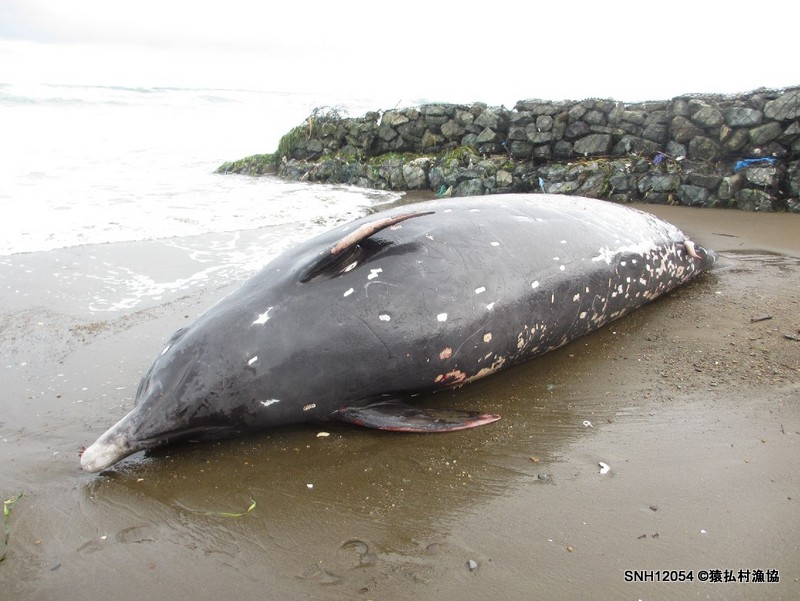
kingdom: Animalia
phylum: Chordata
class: Mammalia
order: Cetacea
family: Hyperoodontidae
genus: Berardius
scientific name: Berardius minimus
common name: Sato's beaked whale
